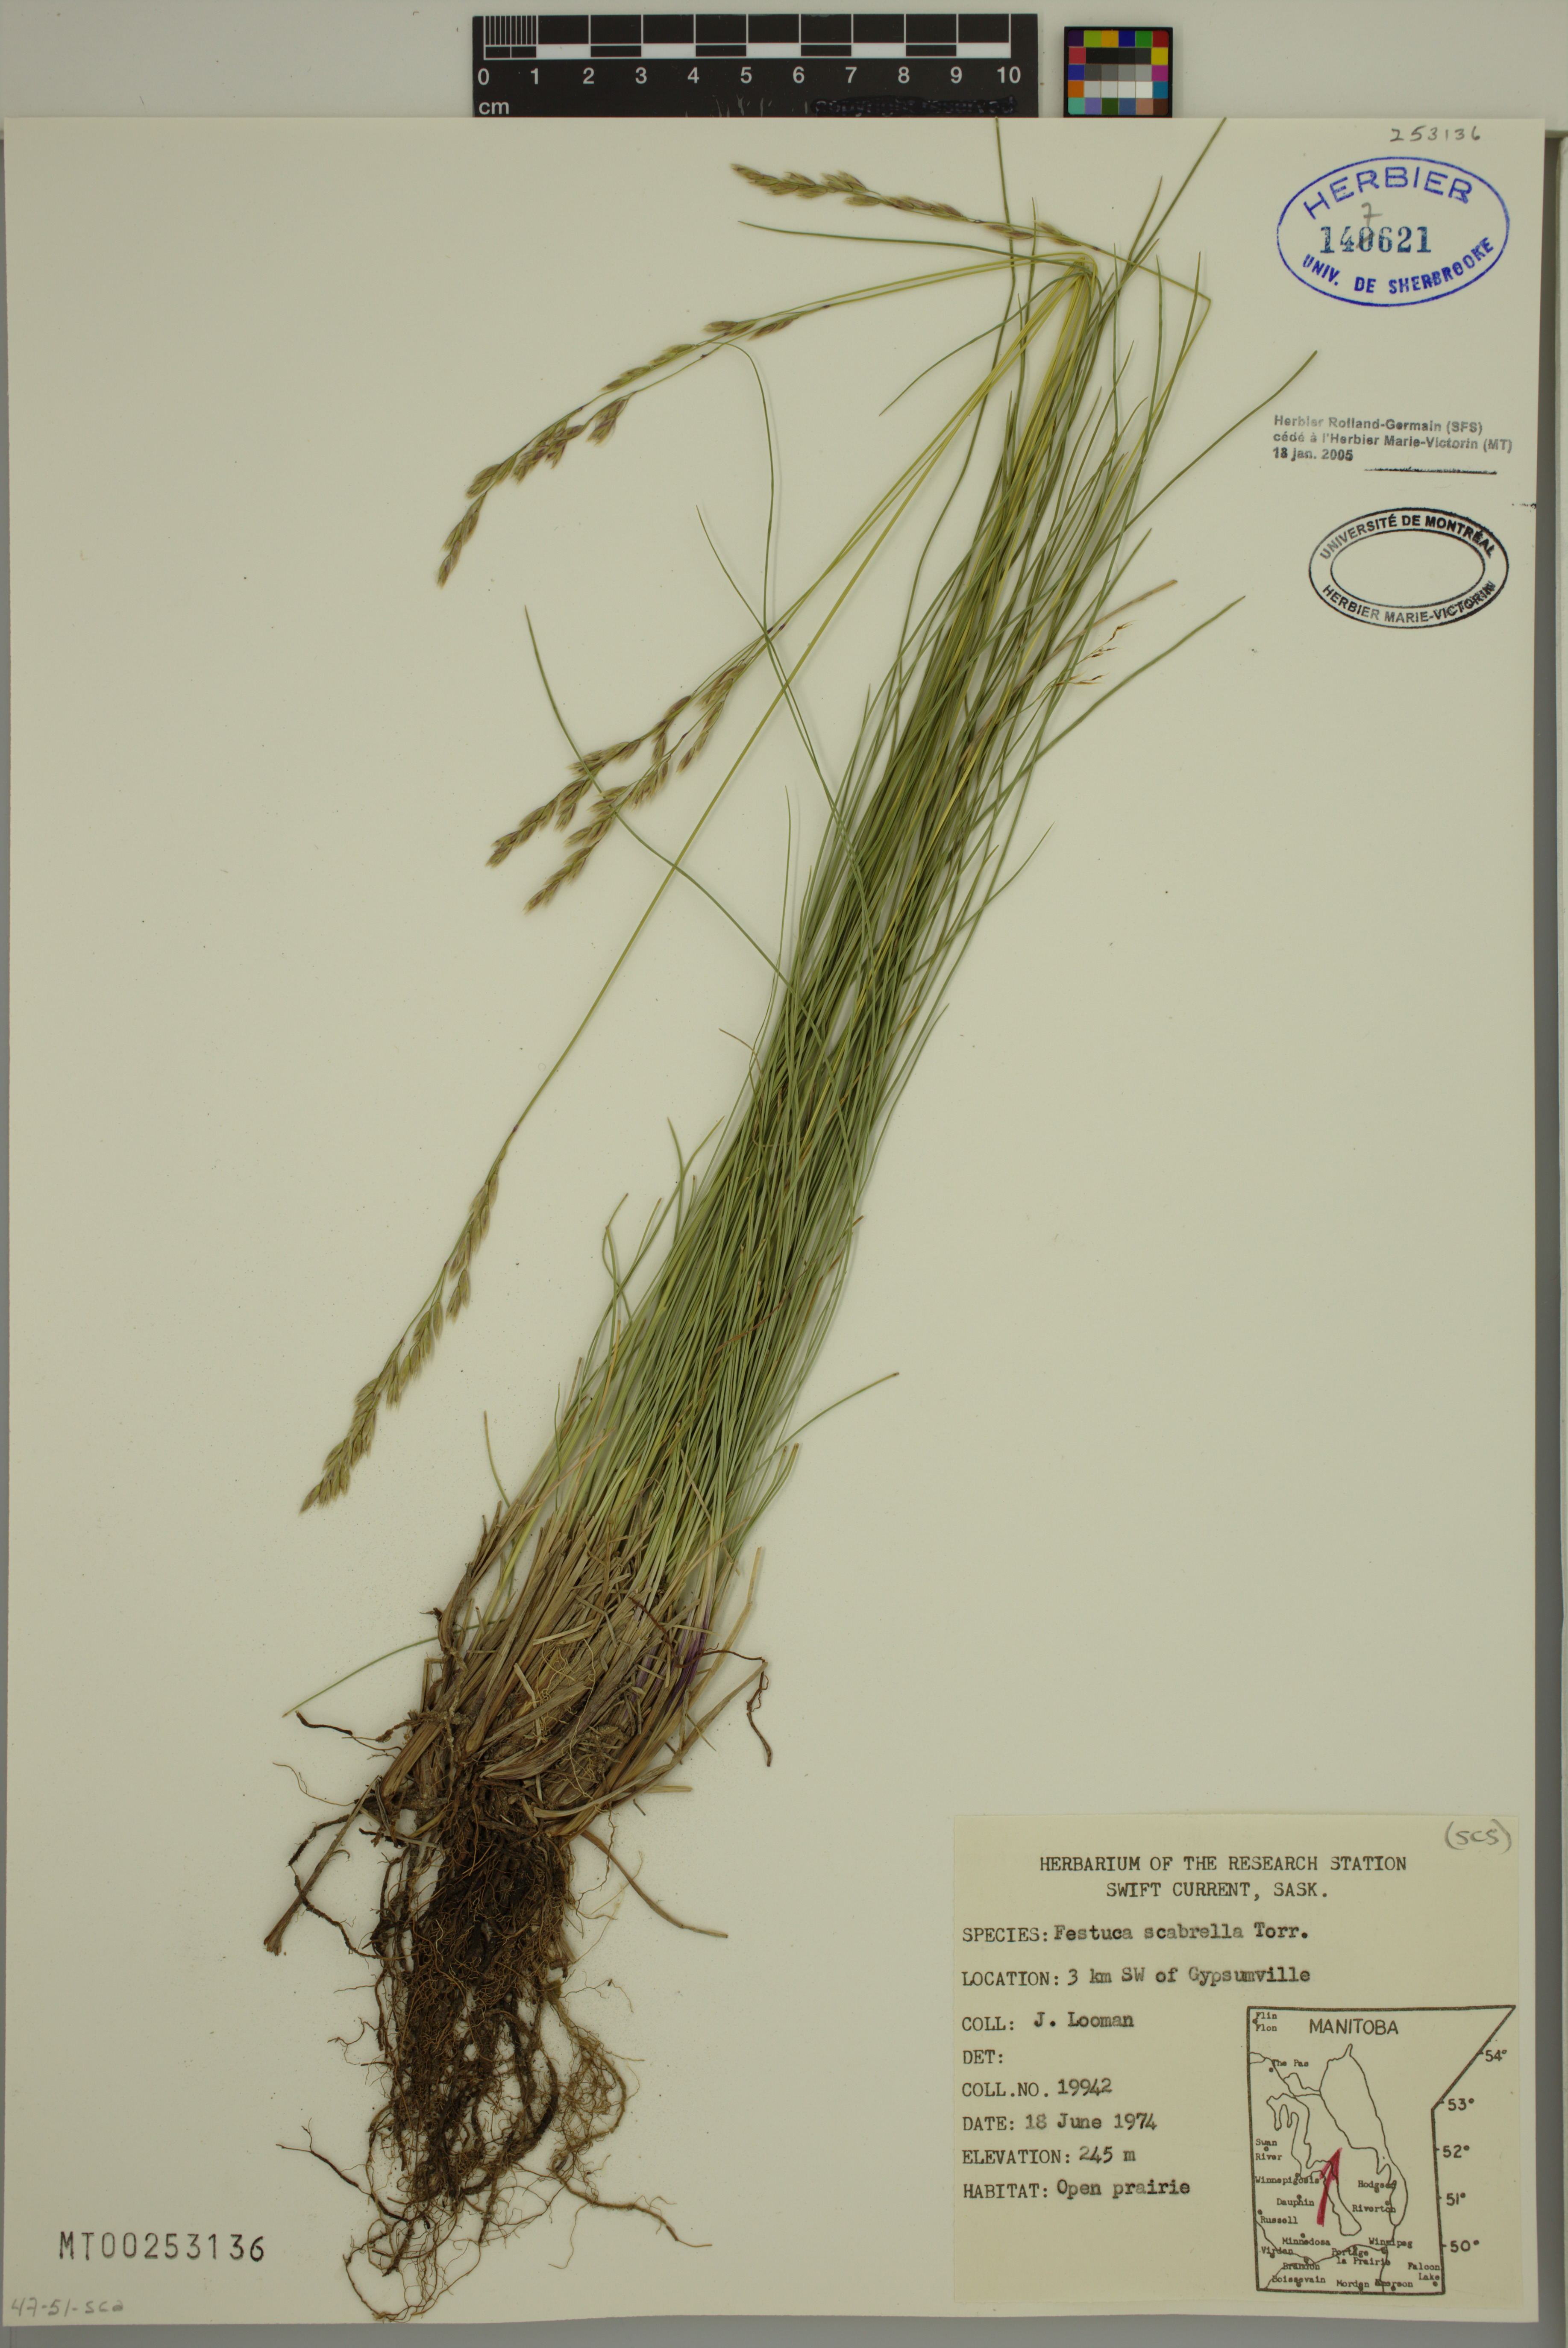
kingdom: Plantae
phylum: Tracheophyta
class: Liliopsida
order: Poales
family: Poaceae
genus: Festuca
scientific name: Festuca
